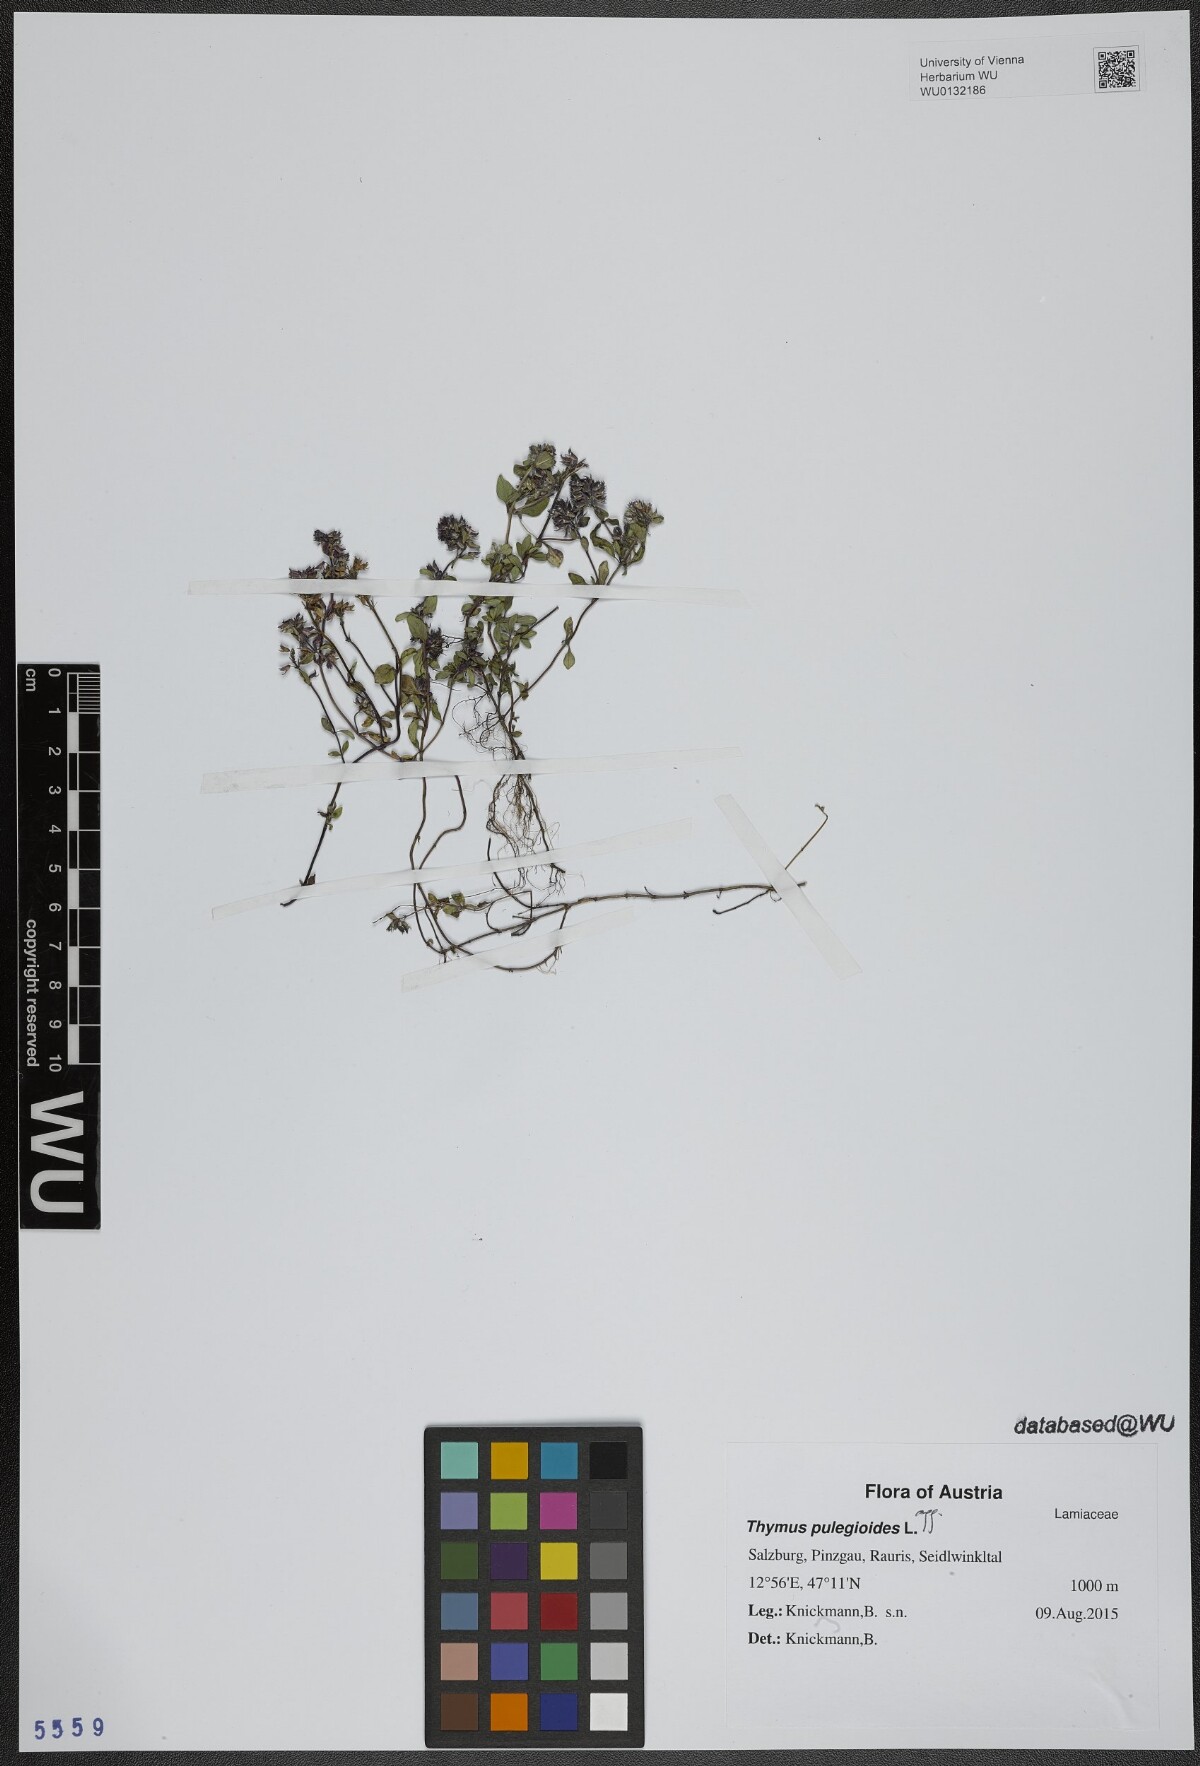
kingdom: Plantae
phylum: Tracheophyta
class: Magnoliopsida
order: Lamiales
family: Lamiaceae
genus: Thymus
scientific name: Thymus pulegioides
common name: Large thyme
